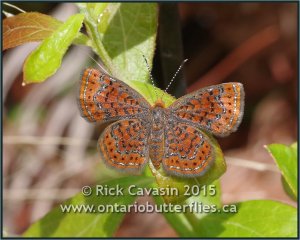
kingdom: Animalia
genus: Calephelis
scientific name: Calephelis virginiensis
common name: Little Metalmark
